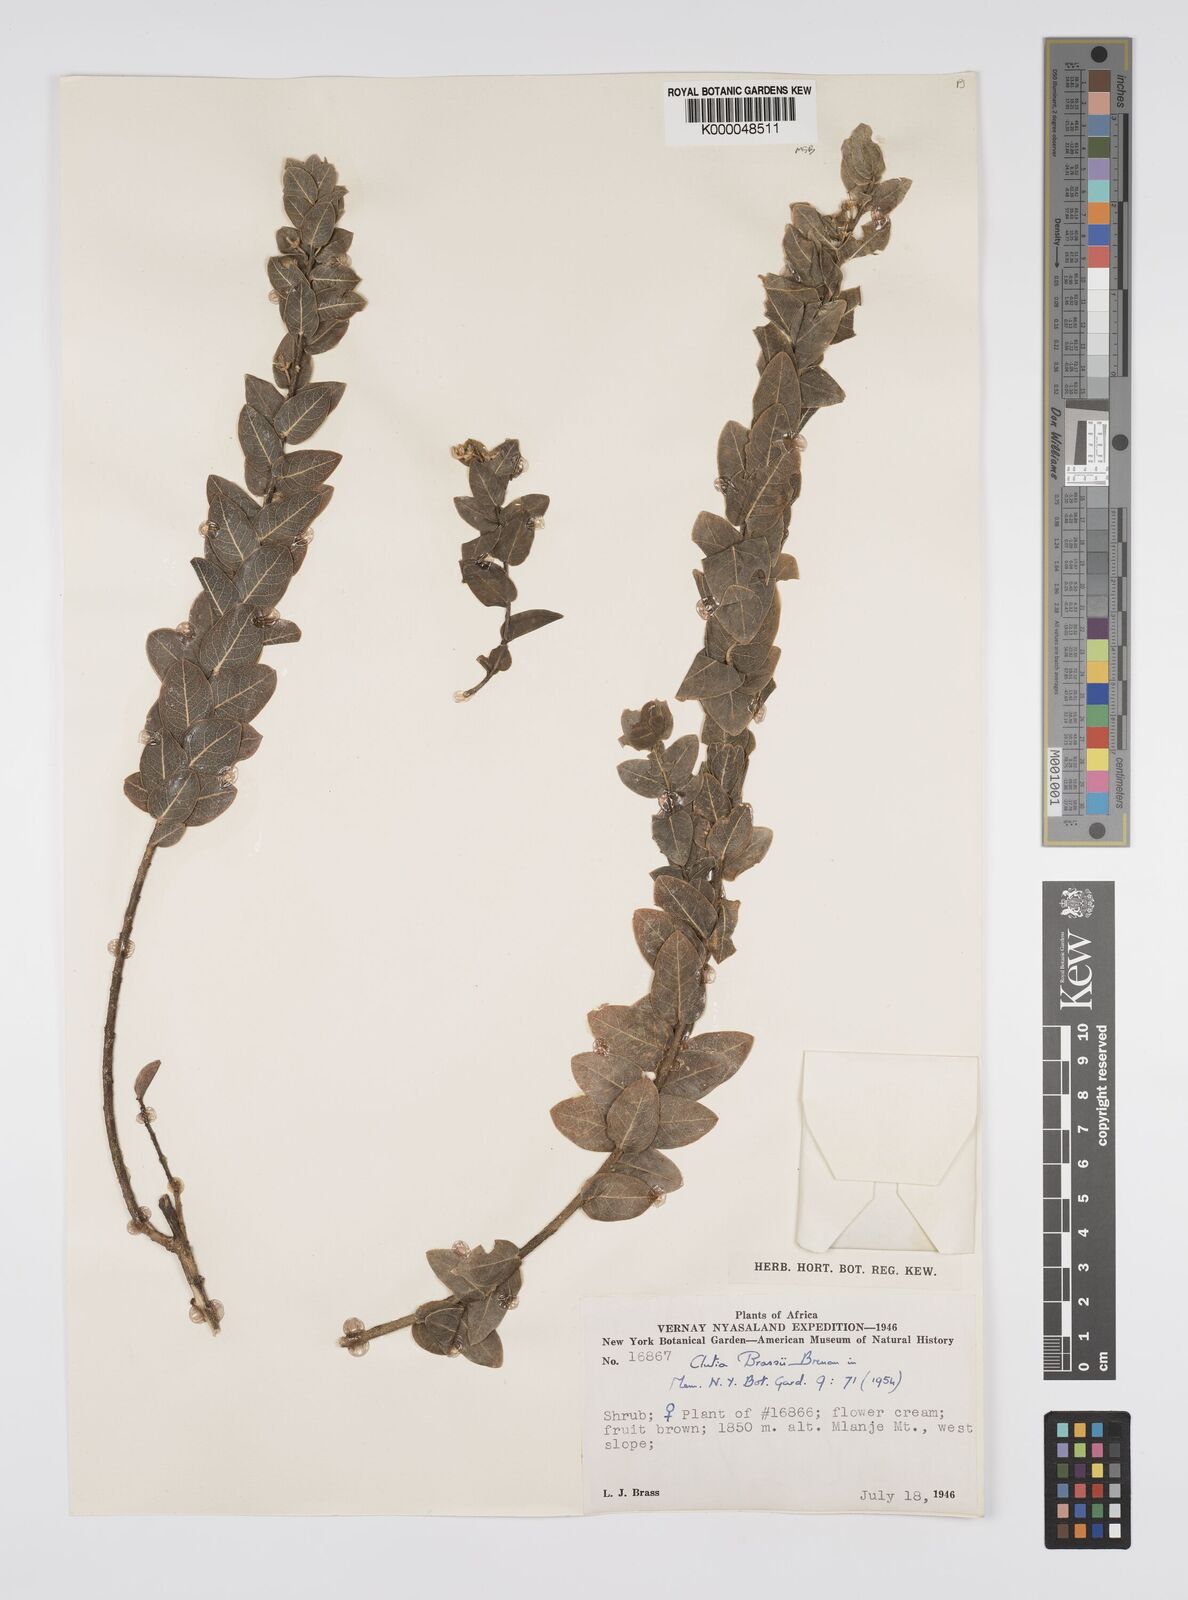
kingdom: Plantae
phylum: Tracheophyta
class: Magnoliopsida
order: Malpighiales
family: Peraceae
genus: Clutia
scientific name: Clutia brassii
